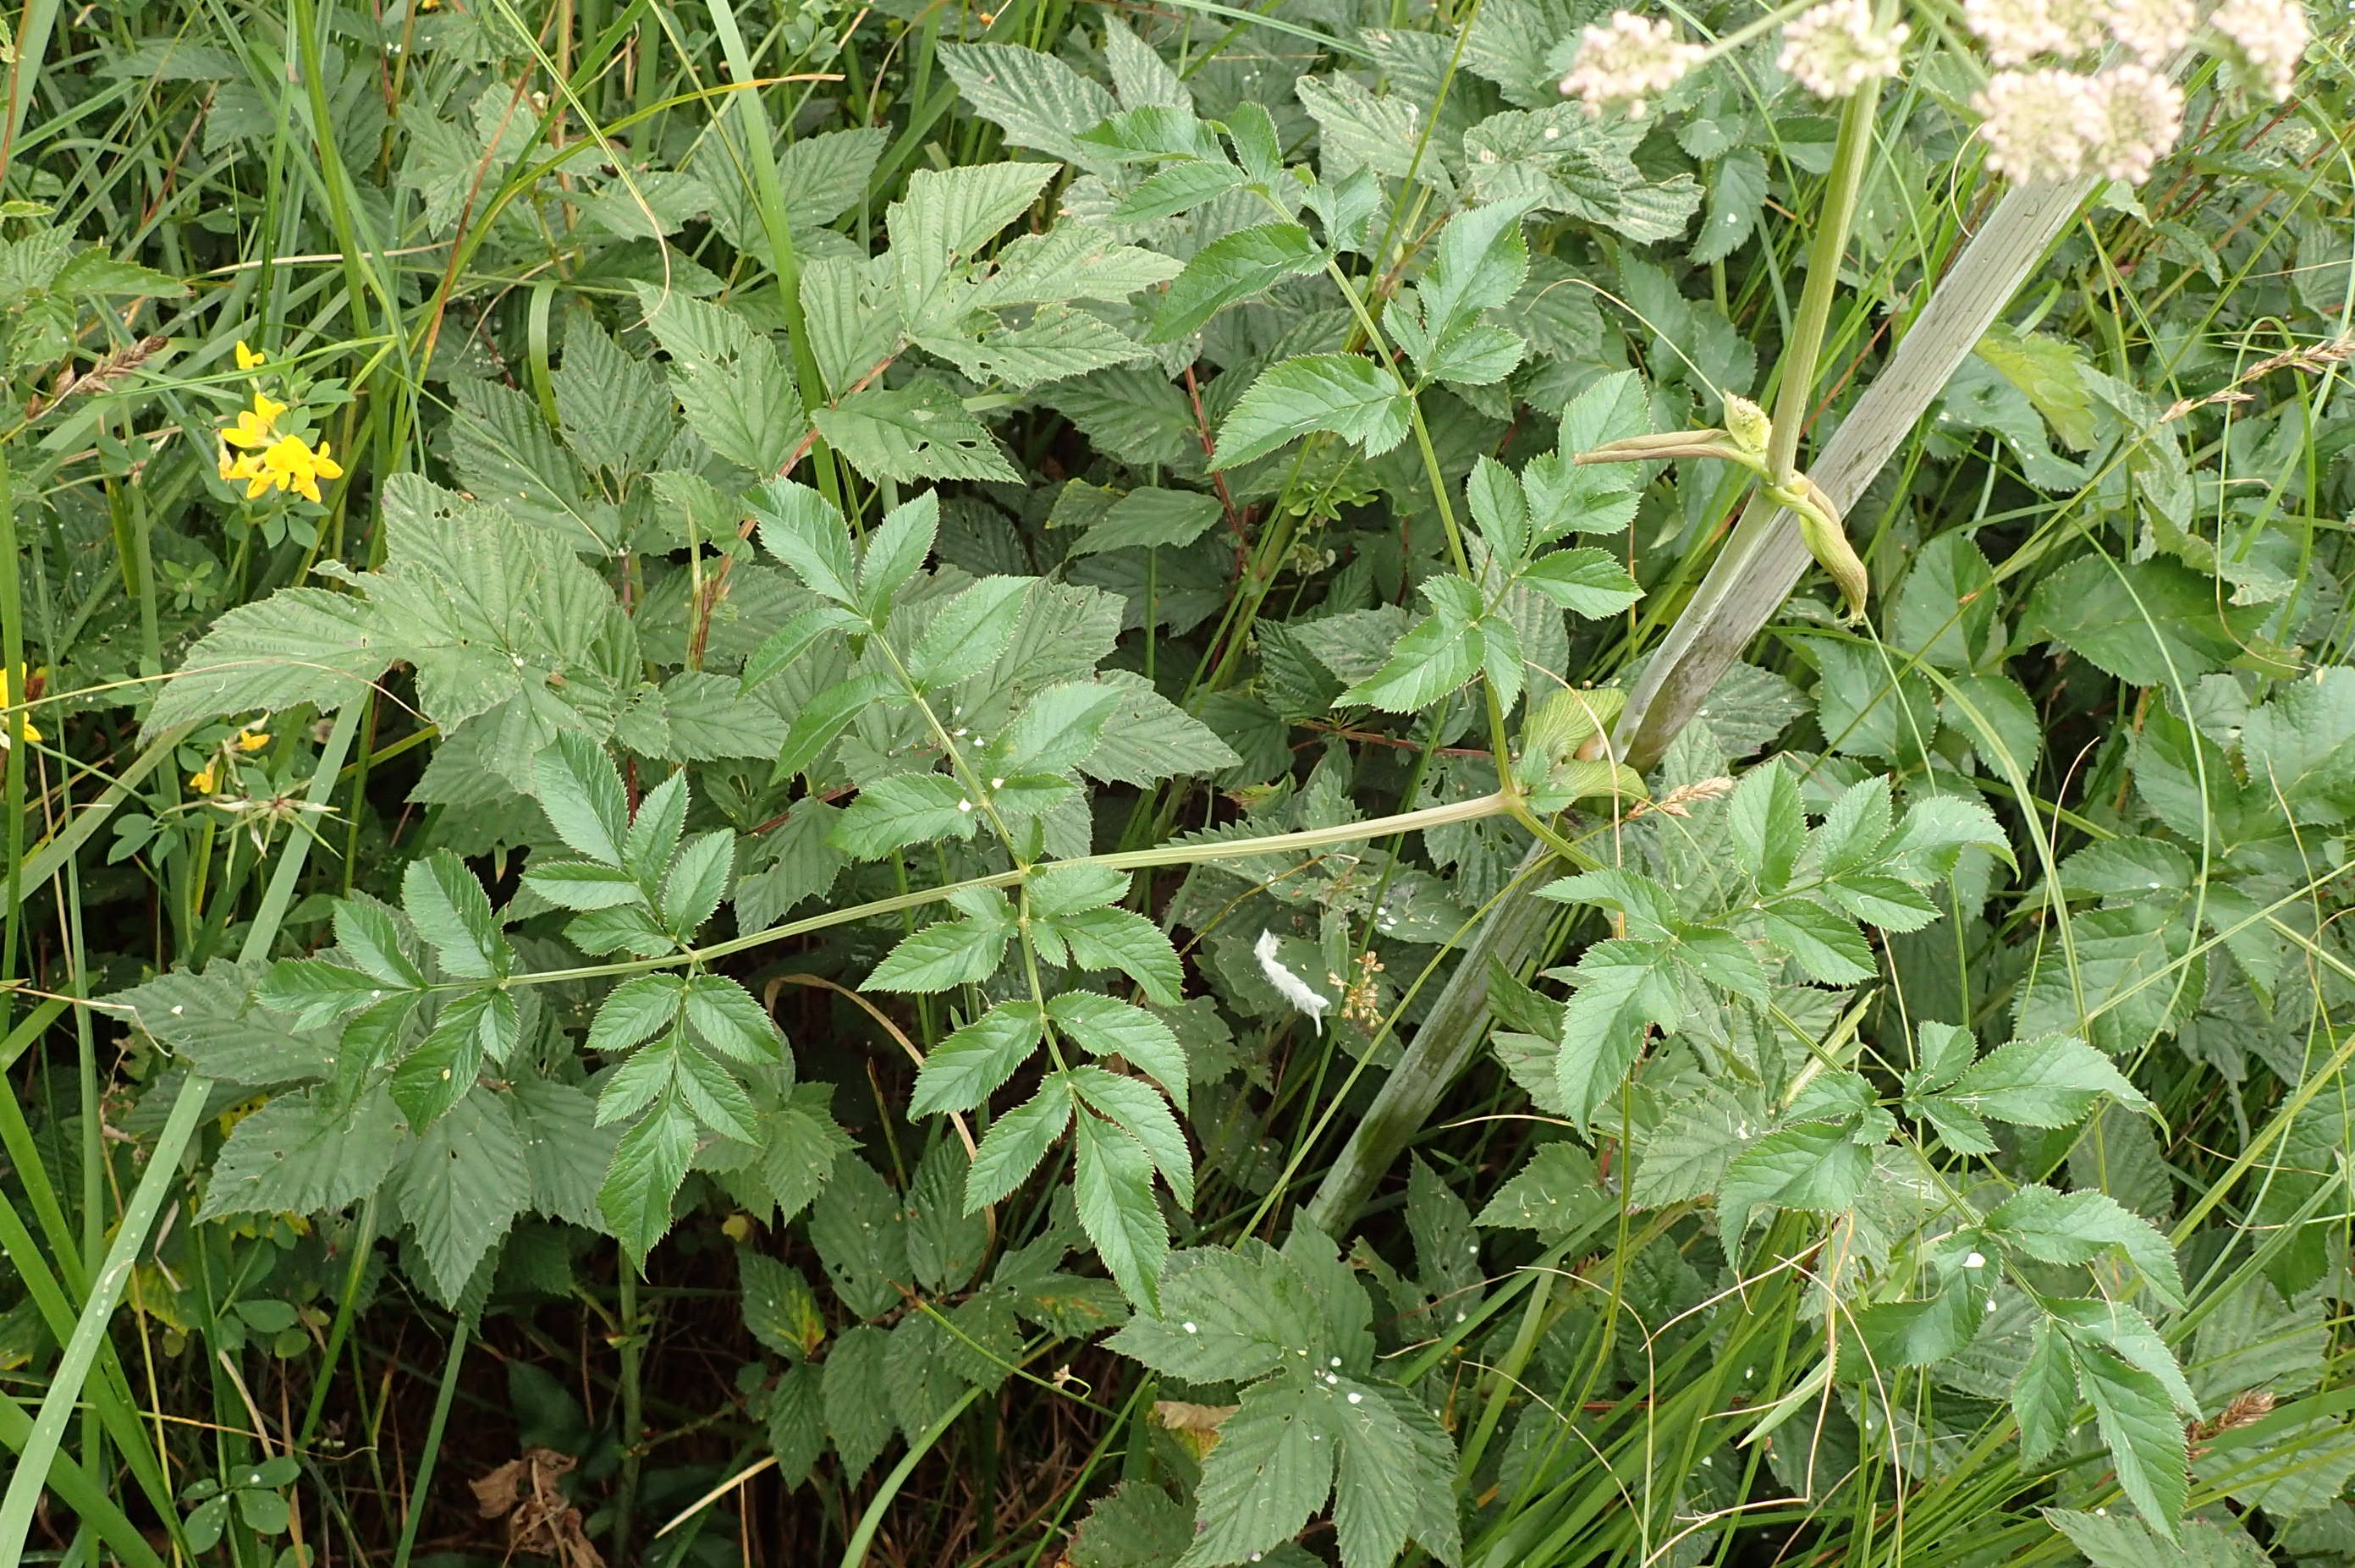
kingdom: Plantae
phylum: Tracheophyta
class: Magnoliopsida
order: Apiales
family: Apiaceae
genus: Angelica
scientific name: Angelica sylvestris
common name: Angelik
